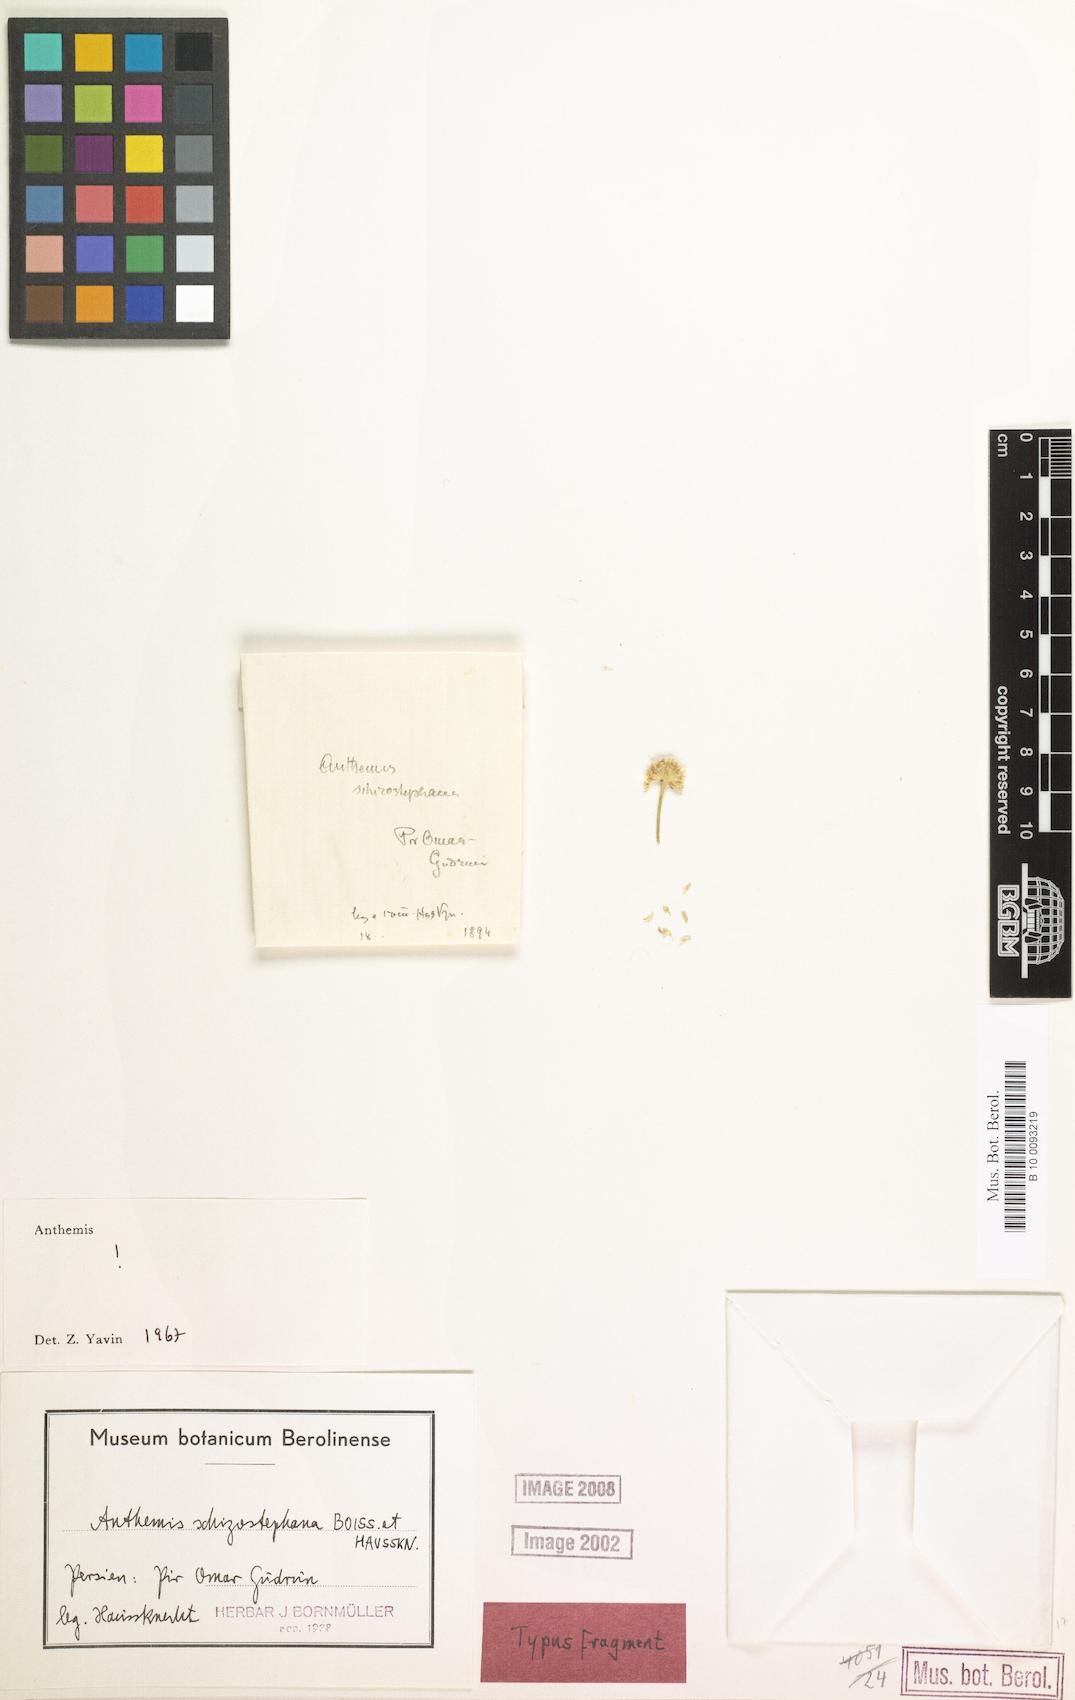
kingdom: Plantae
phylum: Tracheophyta
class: Magnoliopsida
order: Asterales
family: Asteraceae
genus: Anthemis
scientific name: Anthemis schizostephana
